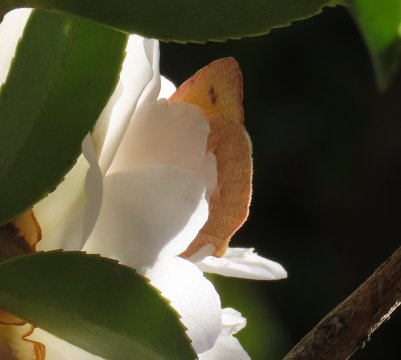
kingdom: Animalia
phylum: Arthropoda
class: Insecta
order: Lepidoptera
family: Pieridae
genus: Abaeis
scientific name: Abaeis nicippe
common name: Sleepy Orange
